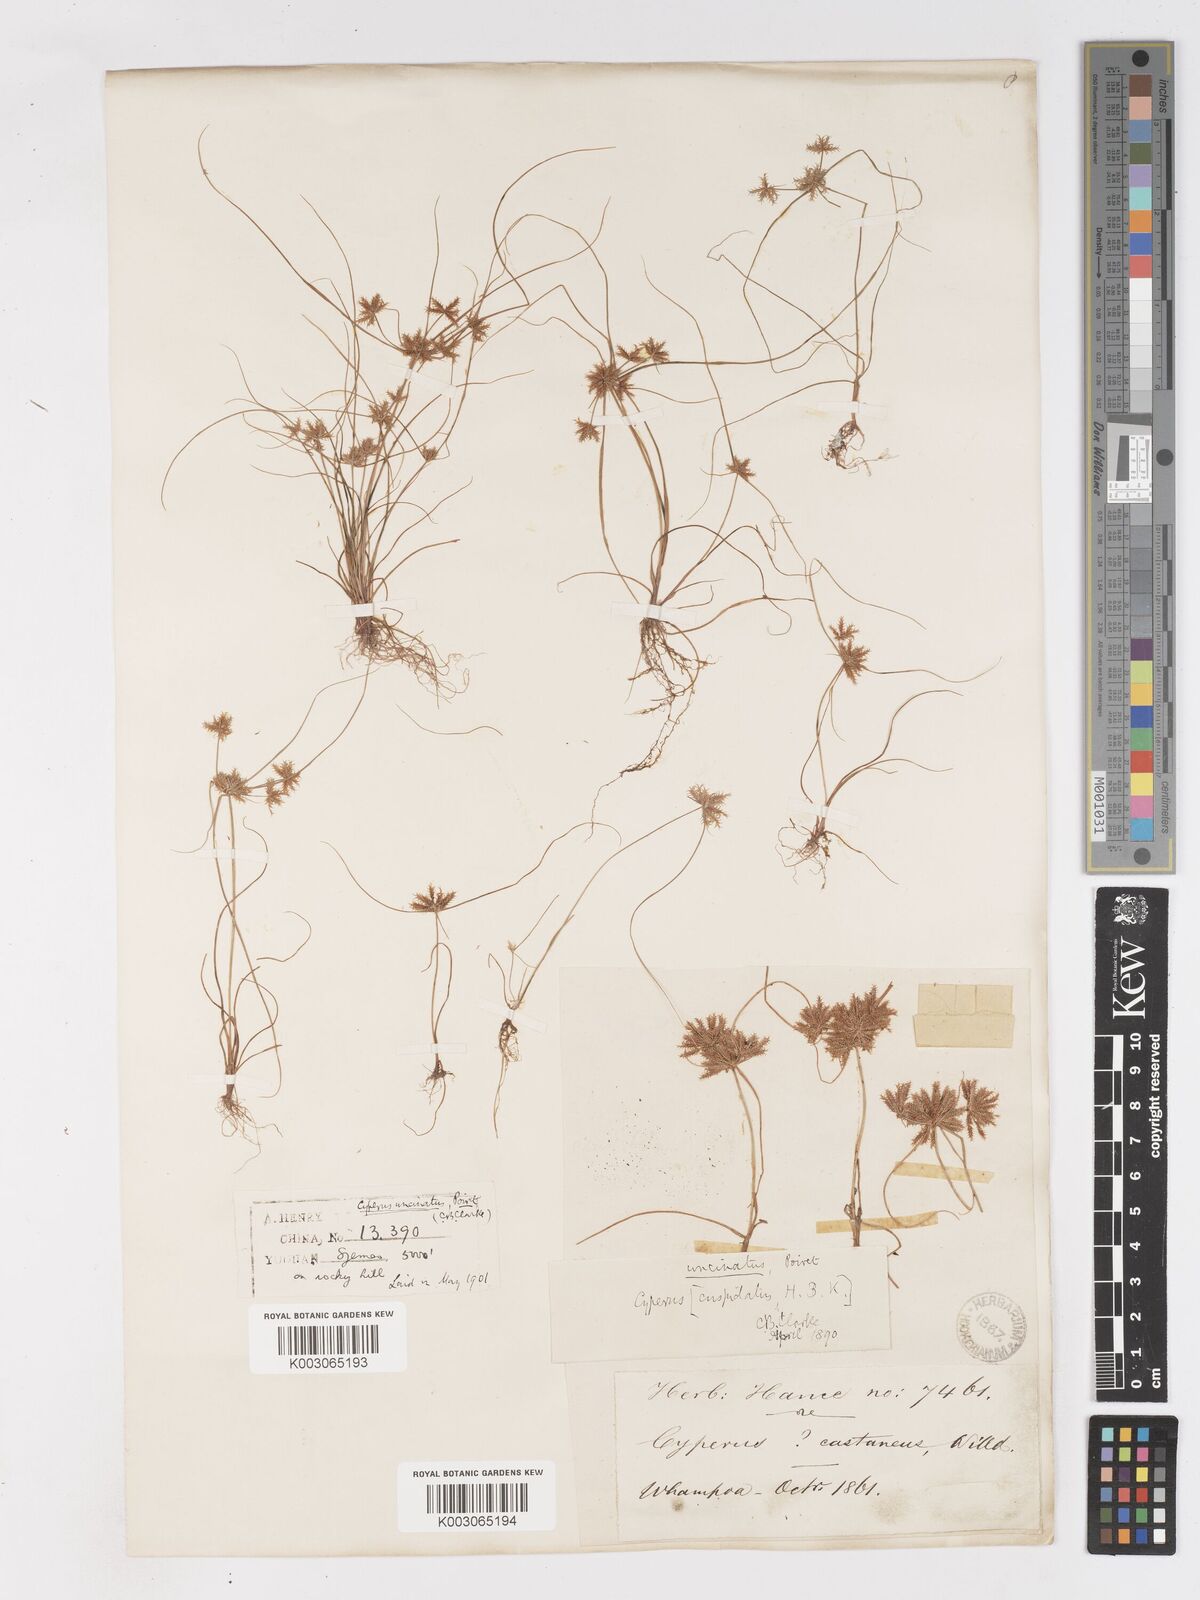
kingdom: Plantae
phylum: Tracheophyta
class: Liliopsida
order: Poales
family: Cyperaceae
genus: Cyperus
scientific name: Cyperus cuspidatus
